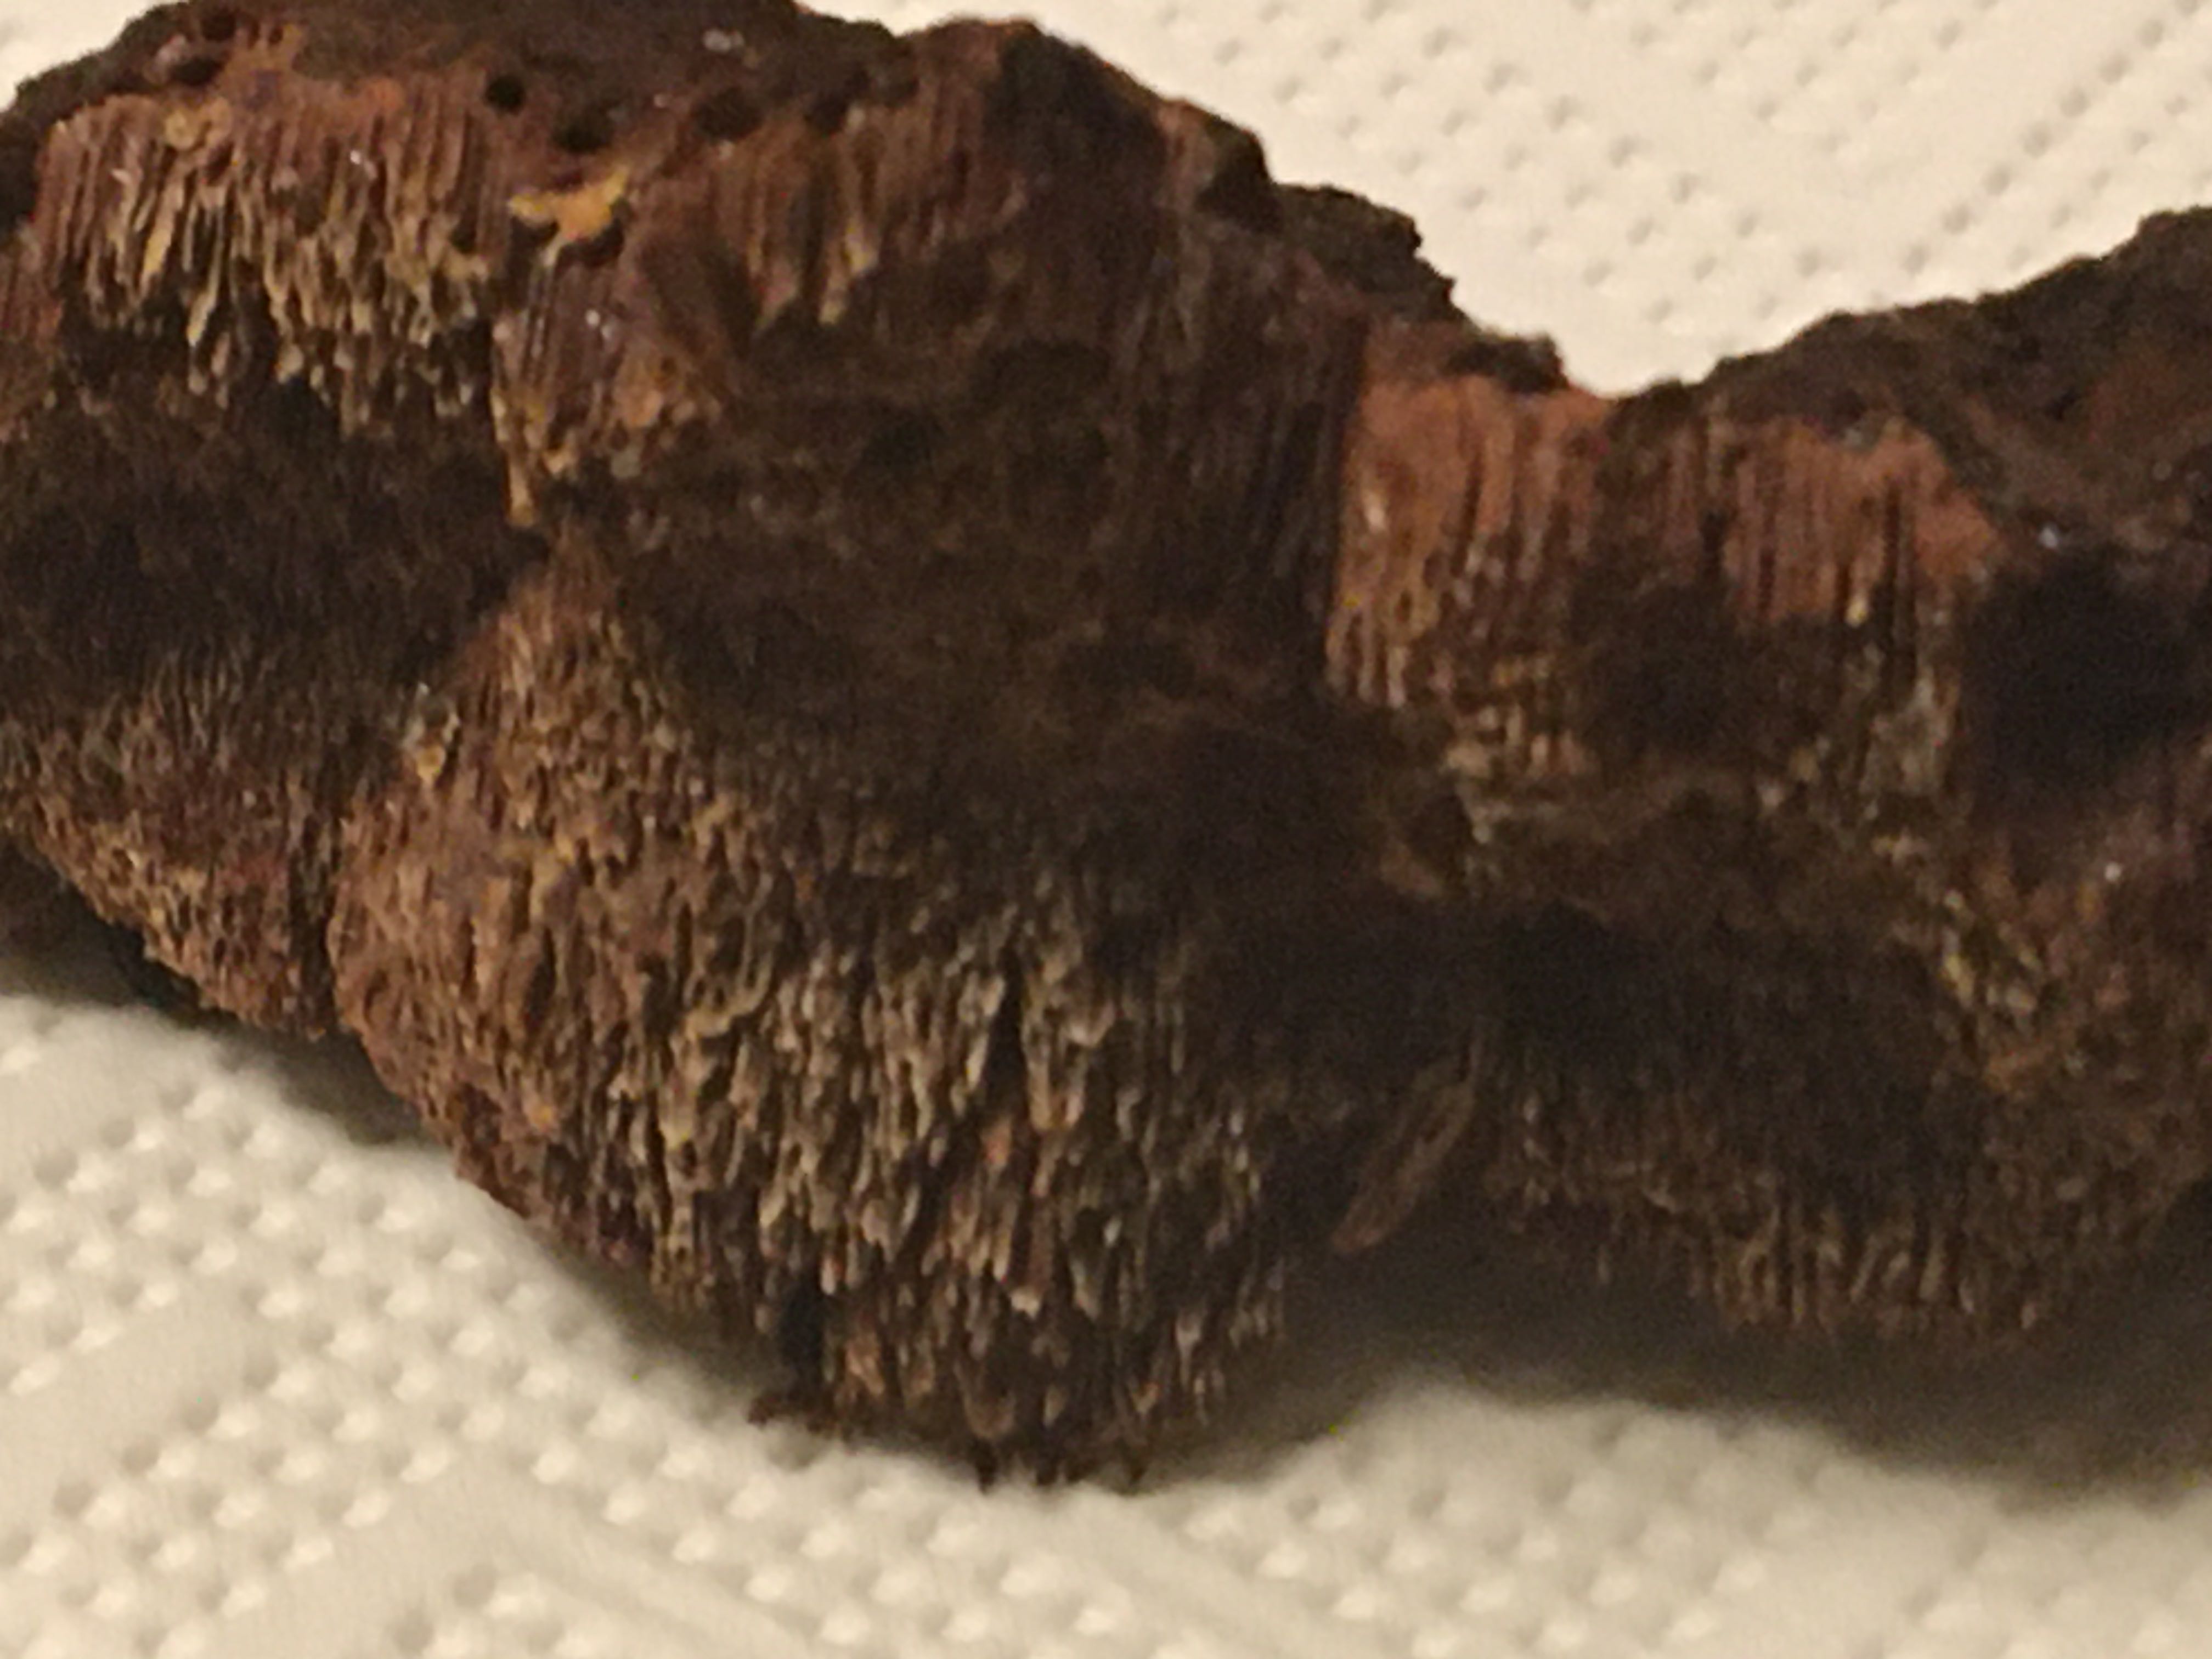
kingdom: Fungi
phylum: Basidiomycota
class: Agaricomycetes
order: Hymenochaetales
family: Hymenochaetaceae
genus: Xanthoporia
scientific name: Xanthoporia radiata
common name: elle-spejlporesvamp
